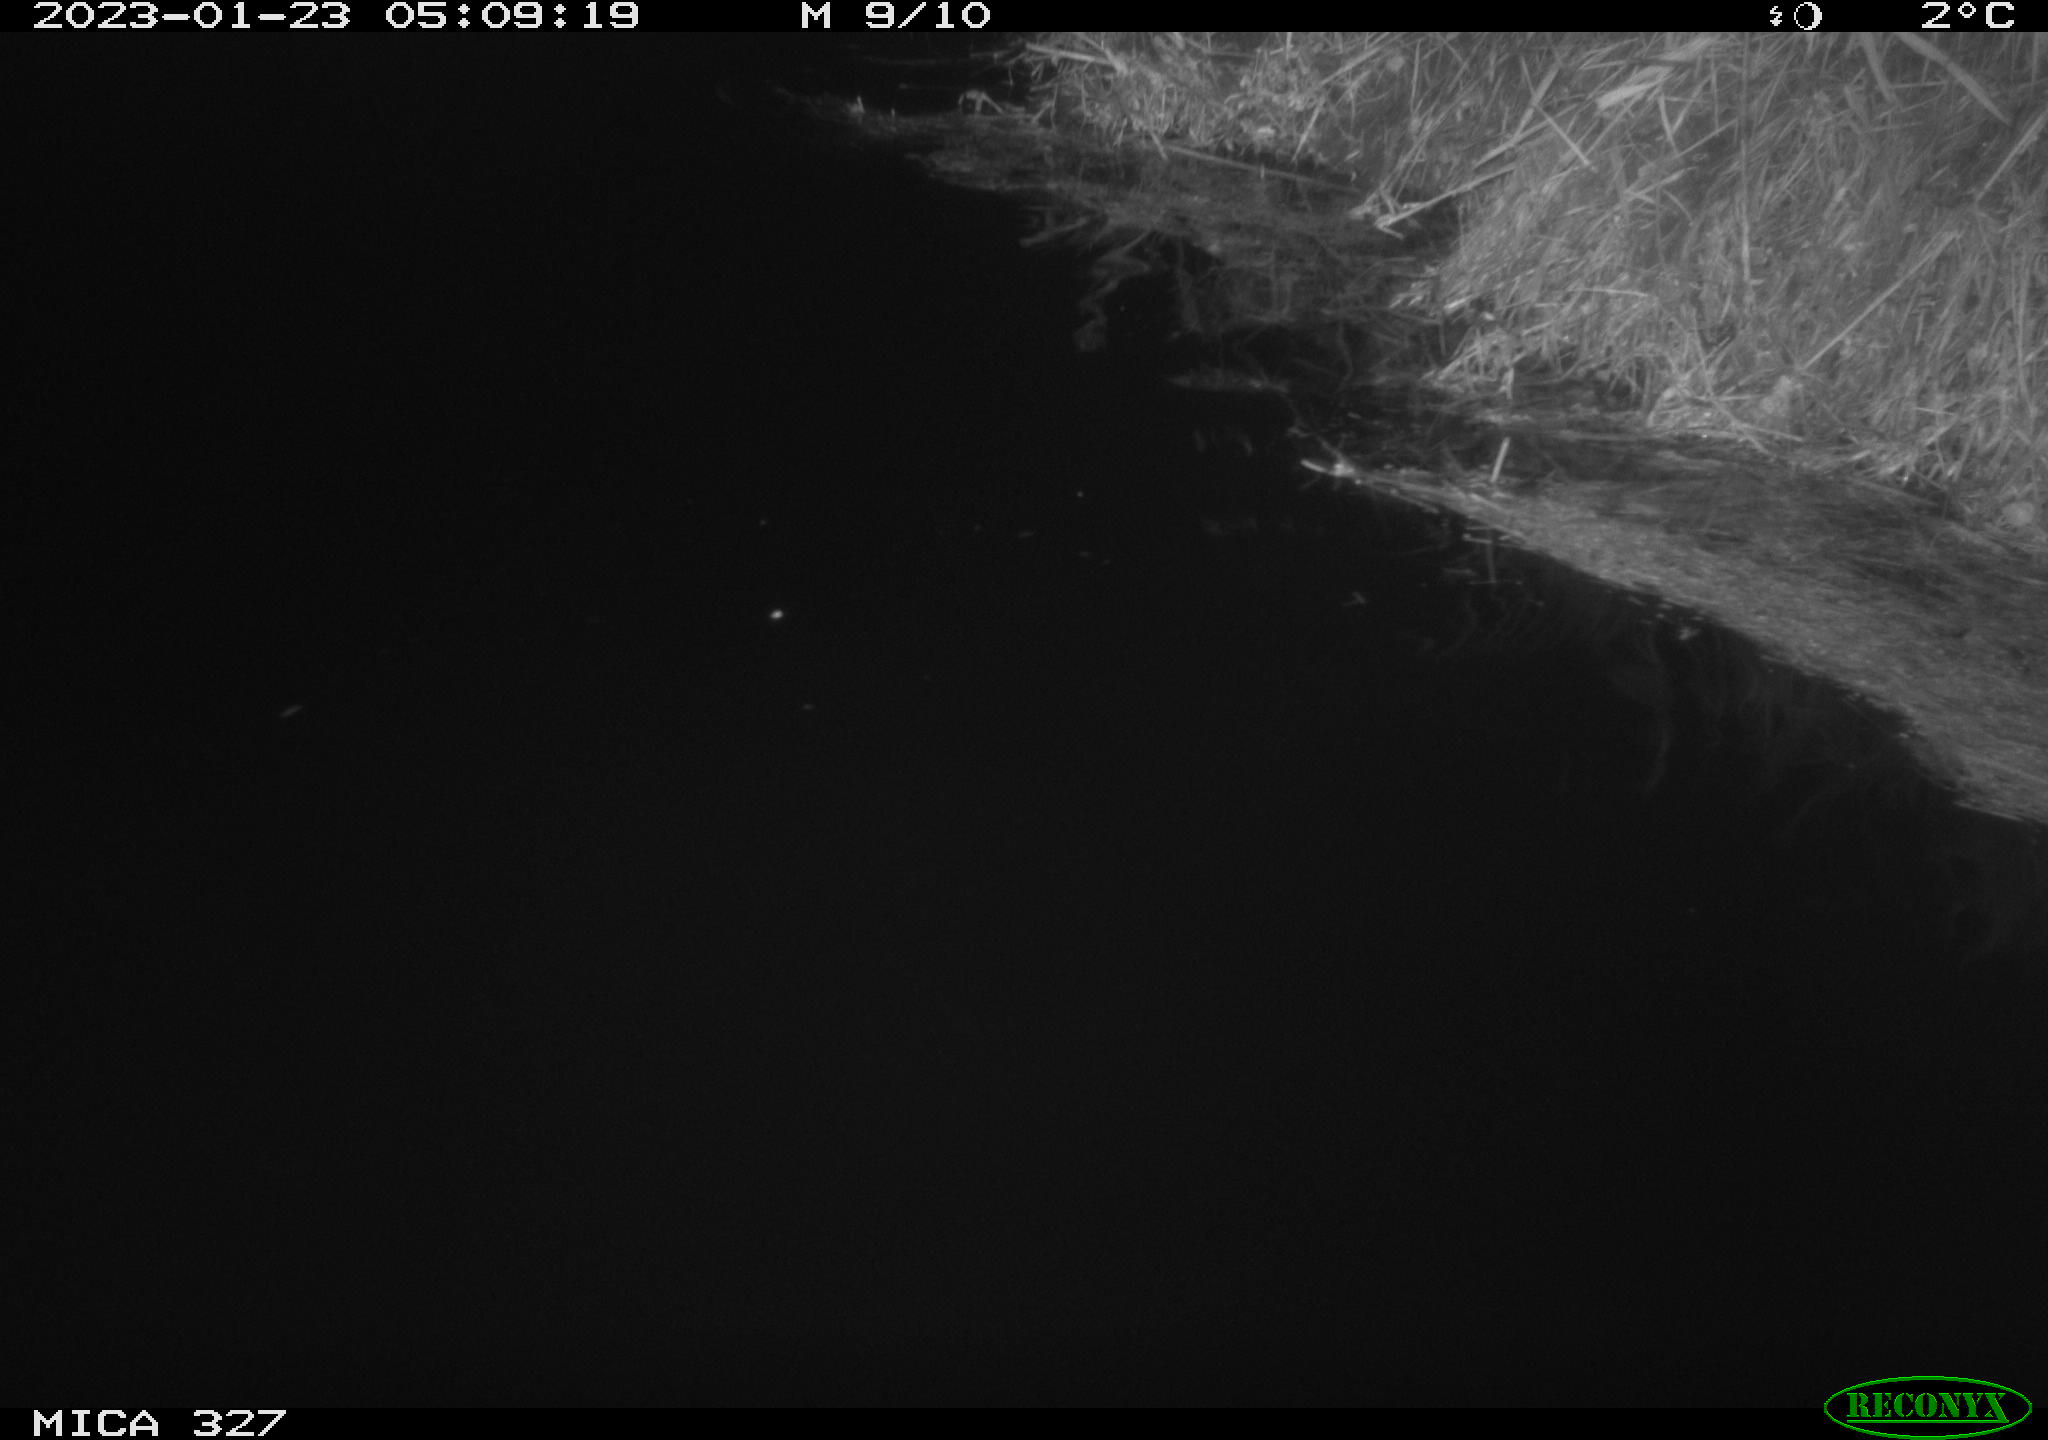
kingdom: Animalia
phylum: Chordata
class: Mammalia
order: Rodentia
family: Cricetidae
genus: Ondatra
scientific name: Ondatra zibethicus
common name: Muskrat
